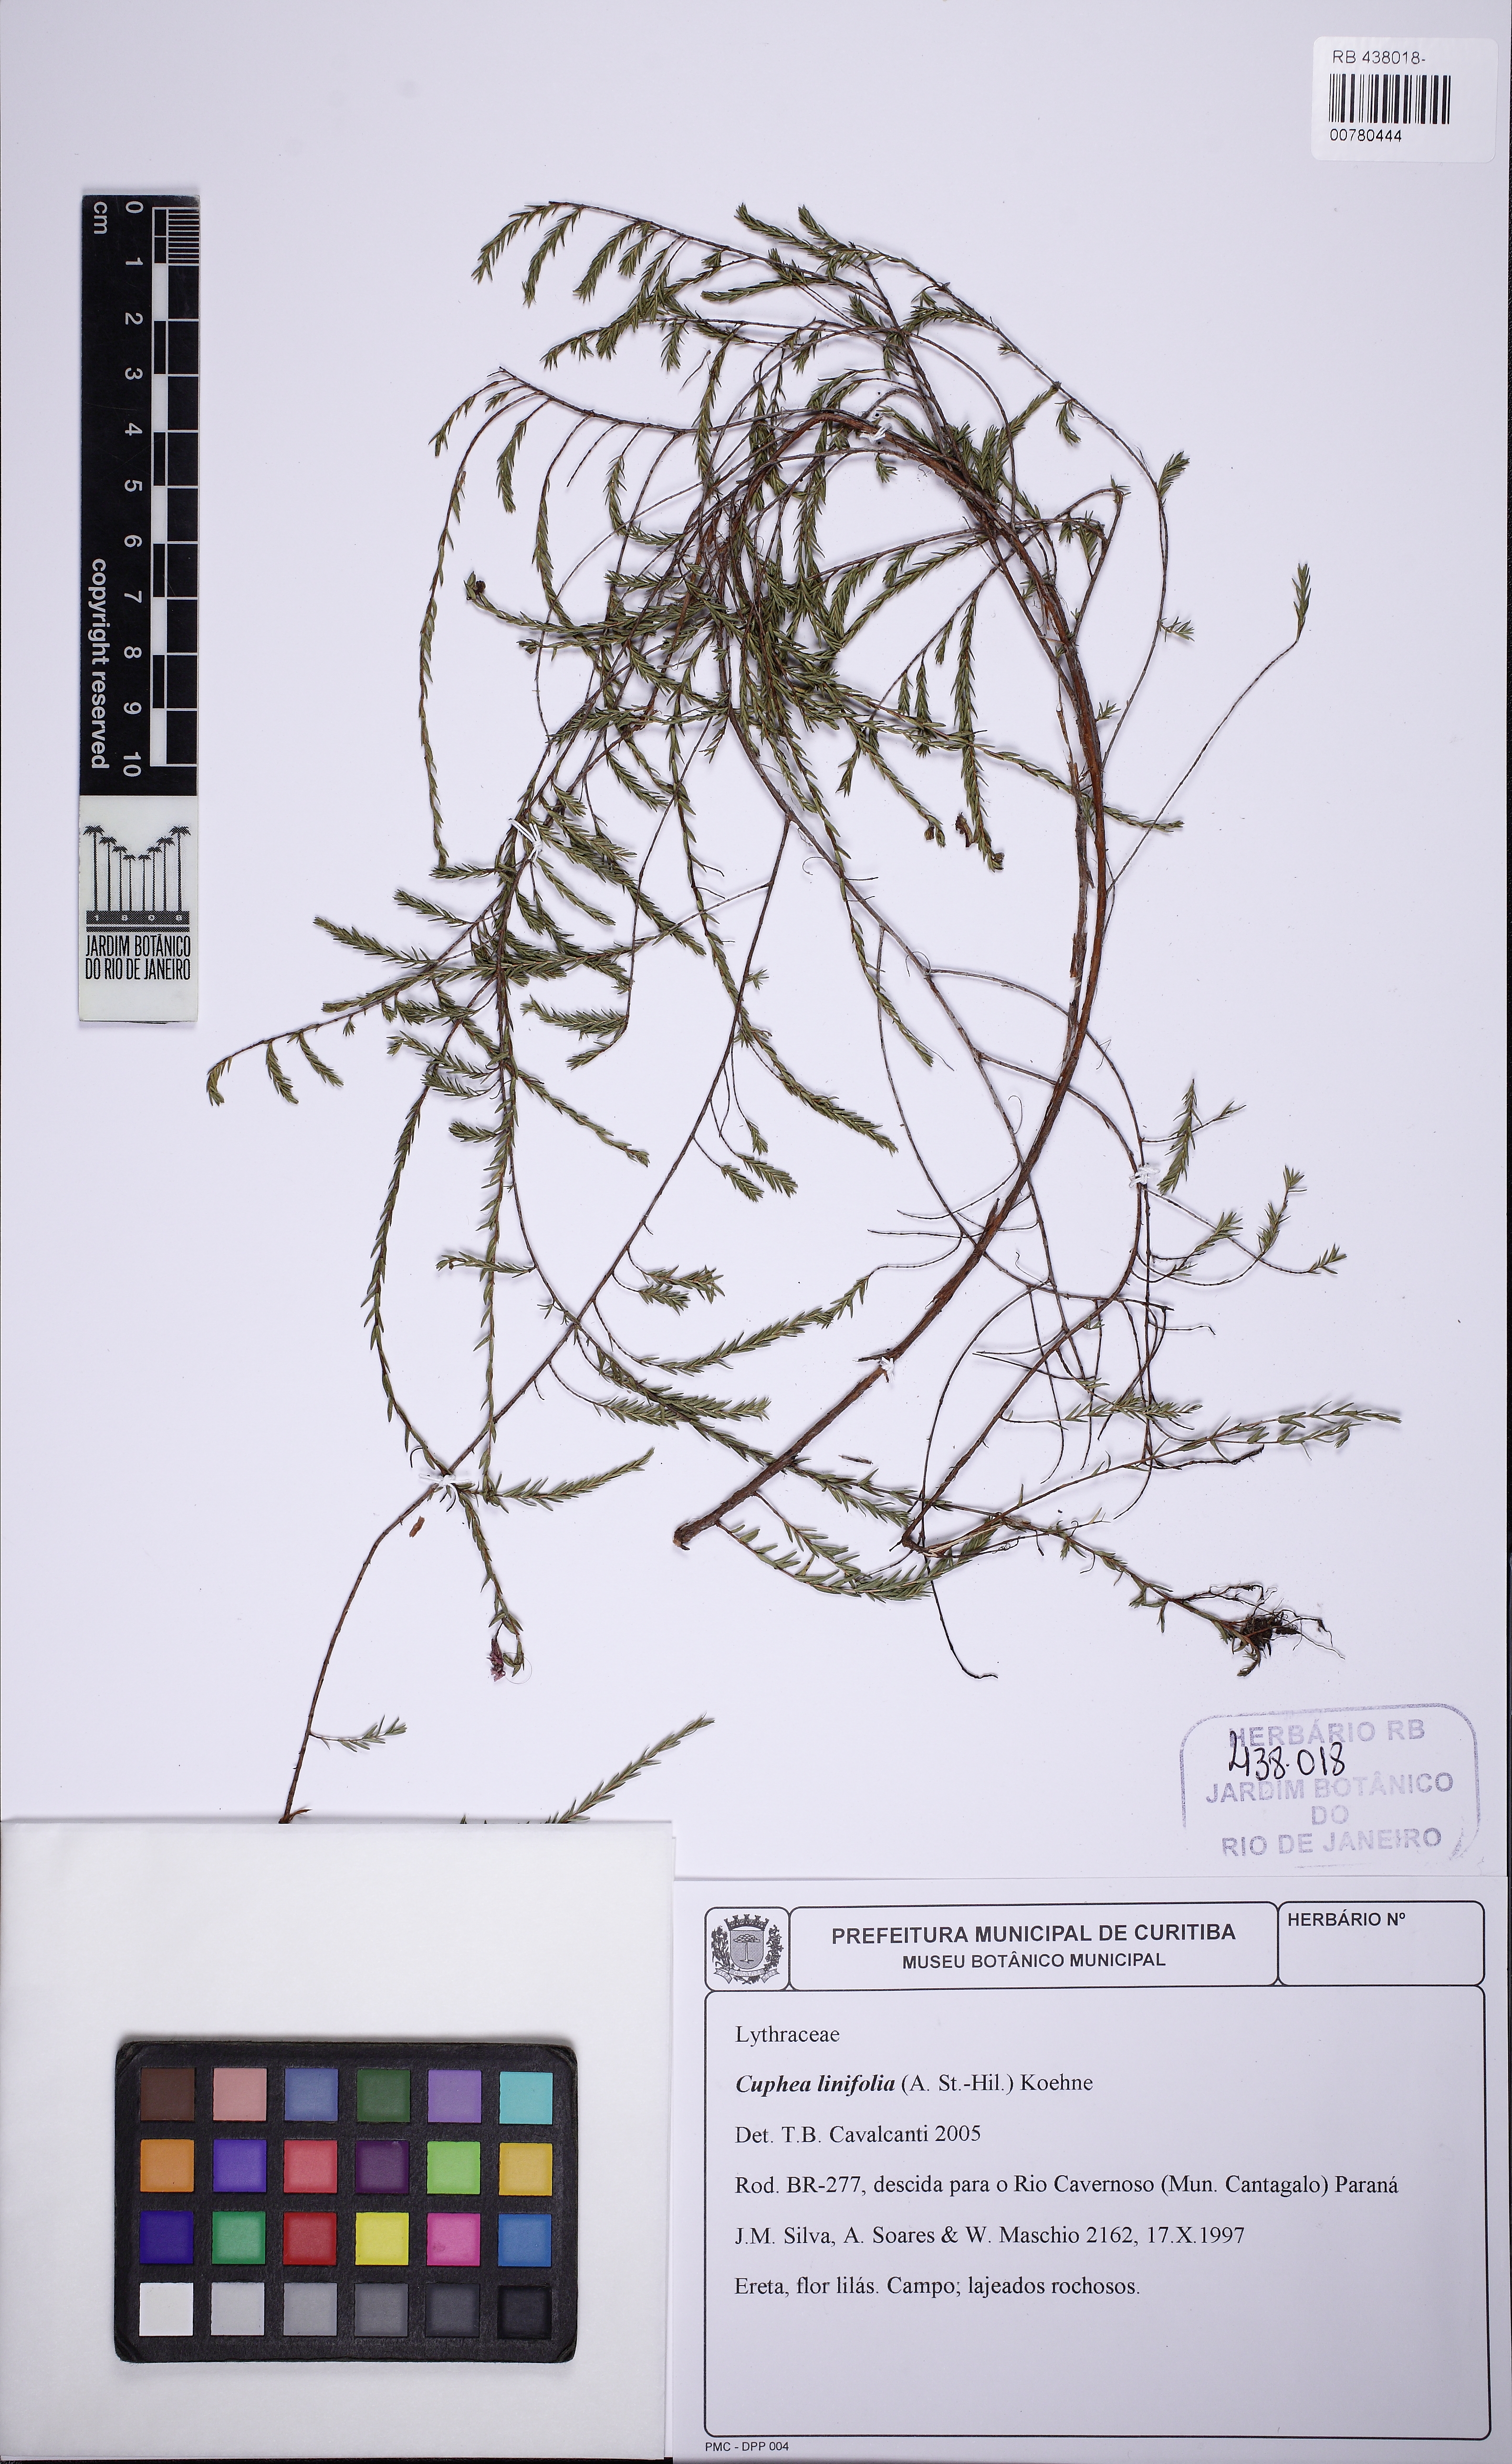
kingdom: Plantae
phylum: Tracheophyta
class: Magnoliopsida
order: Myrtales
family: Lythraceae
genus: Cuphea
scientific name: Cuphea linifolia
